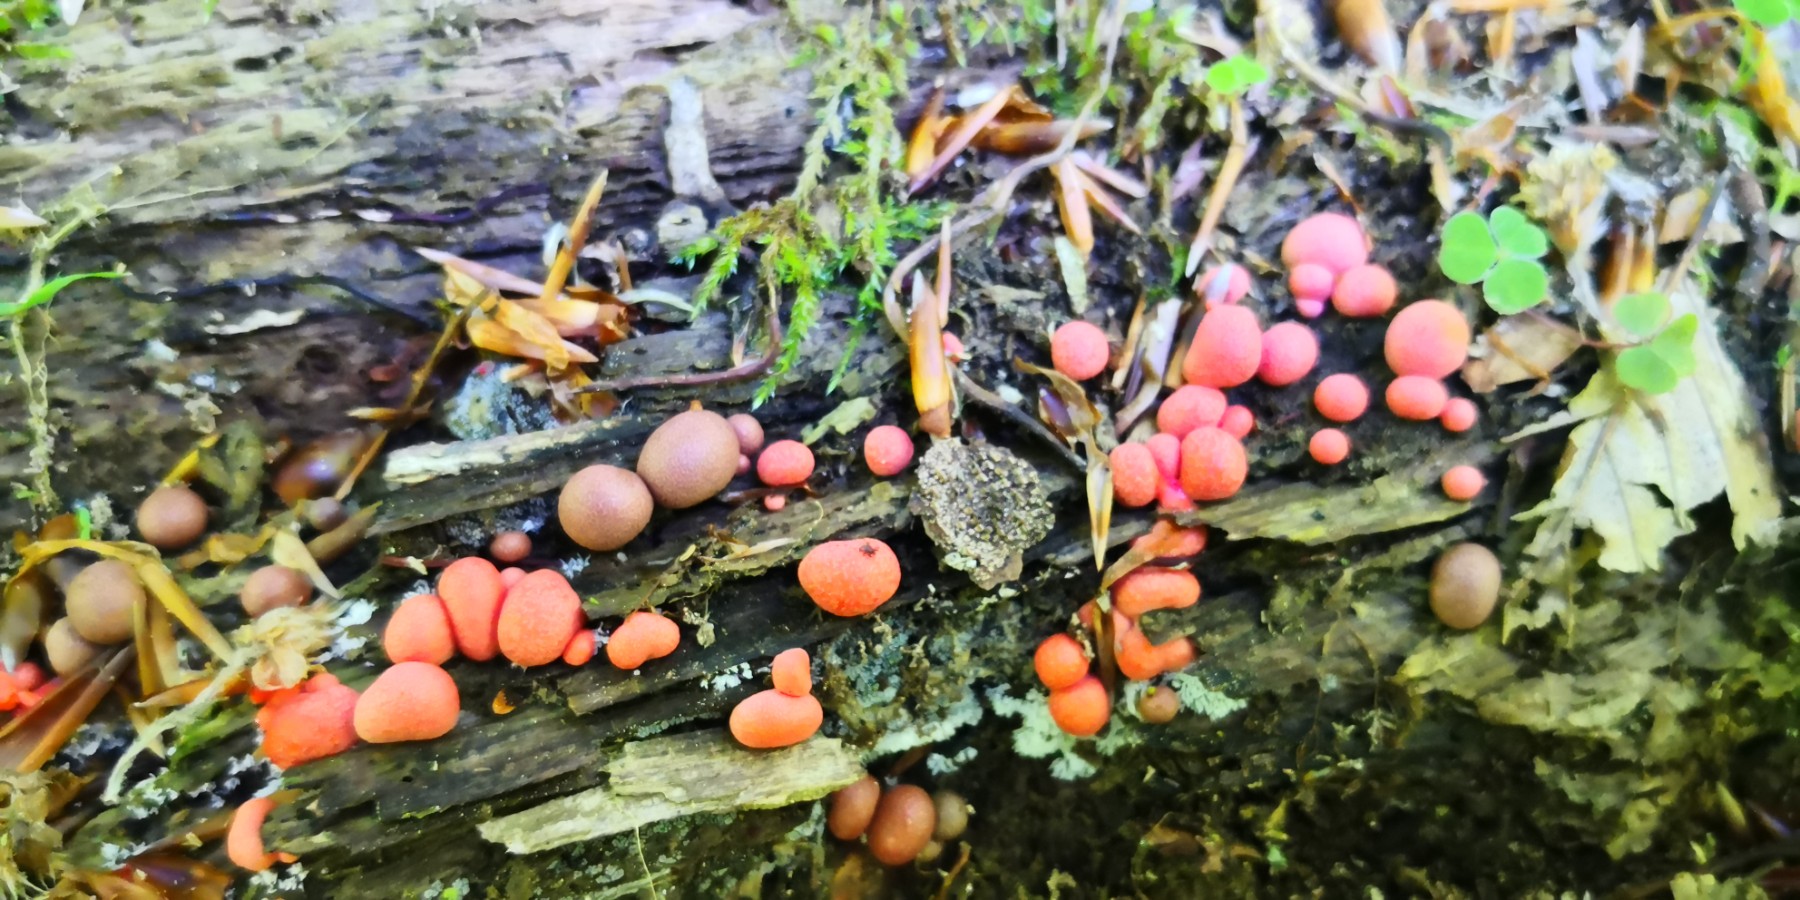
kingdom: Protozoa
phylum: Mycetozoa
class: Myxomycetes
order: Cribrariales
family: Tubiferaceae
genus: Lycogala
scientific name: Lycogala epidendrum
